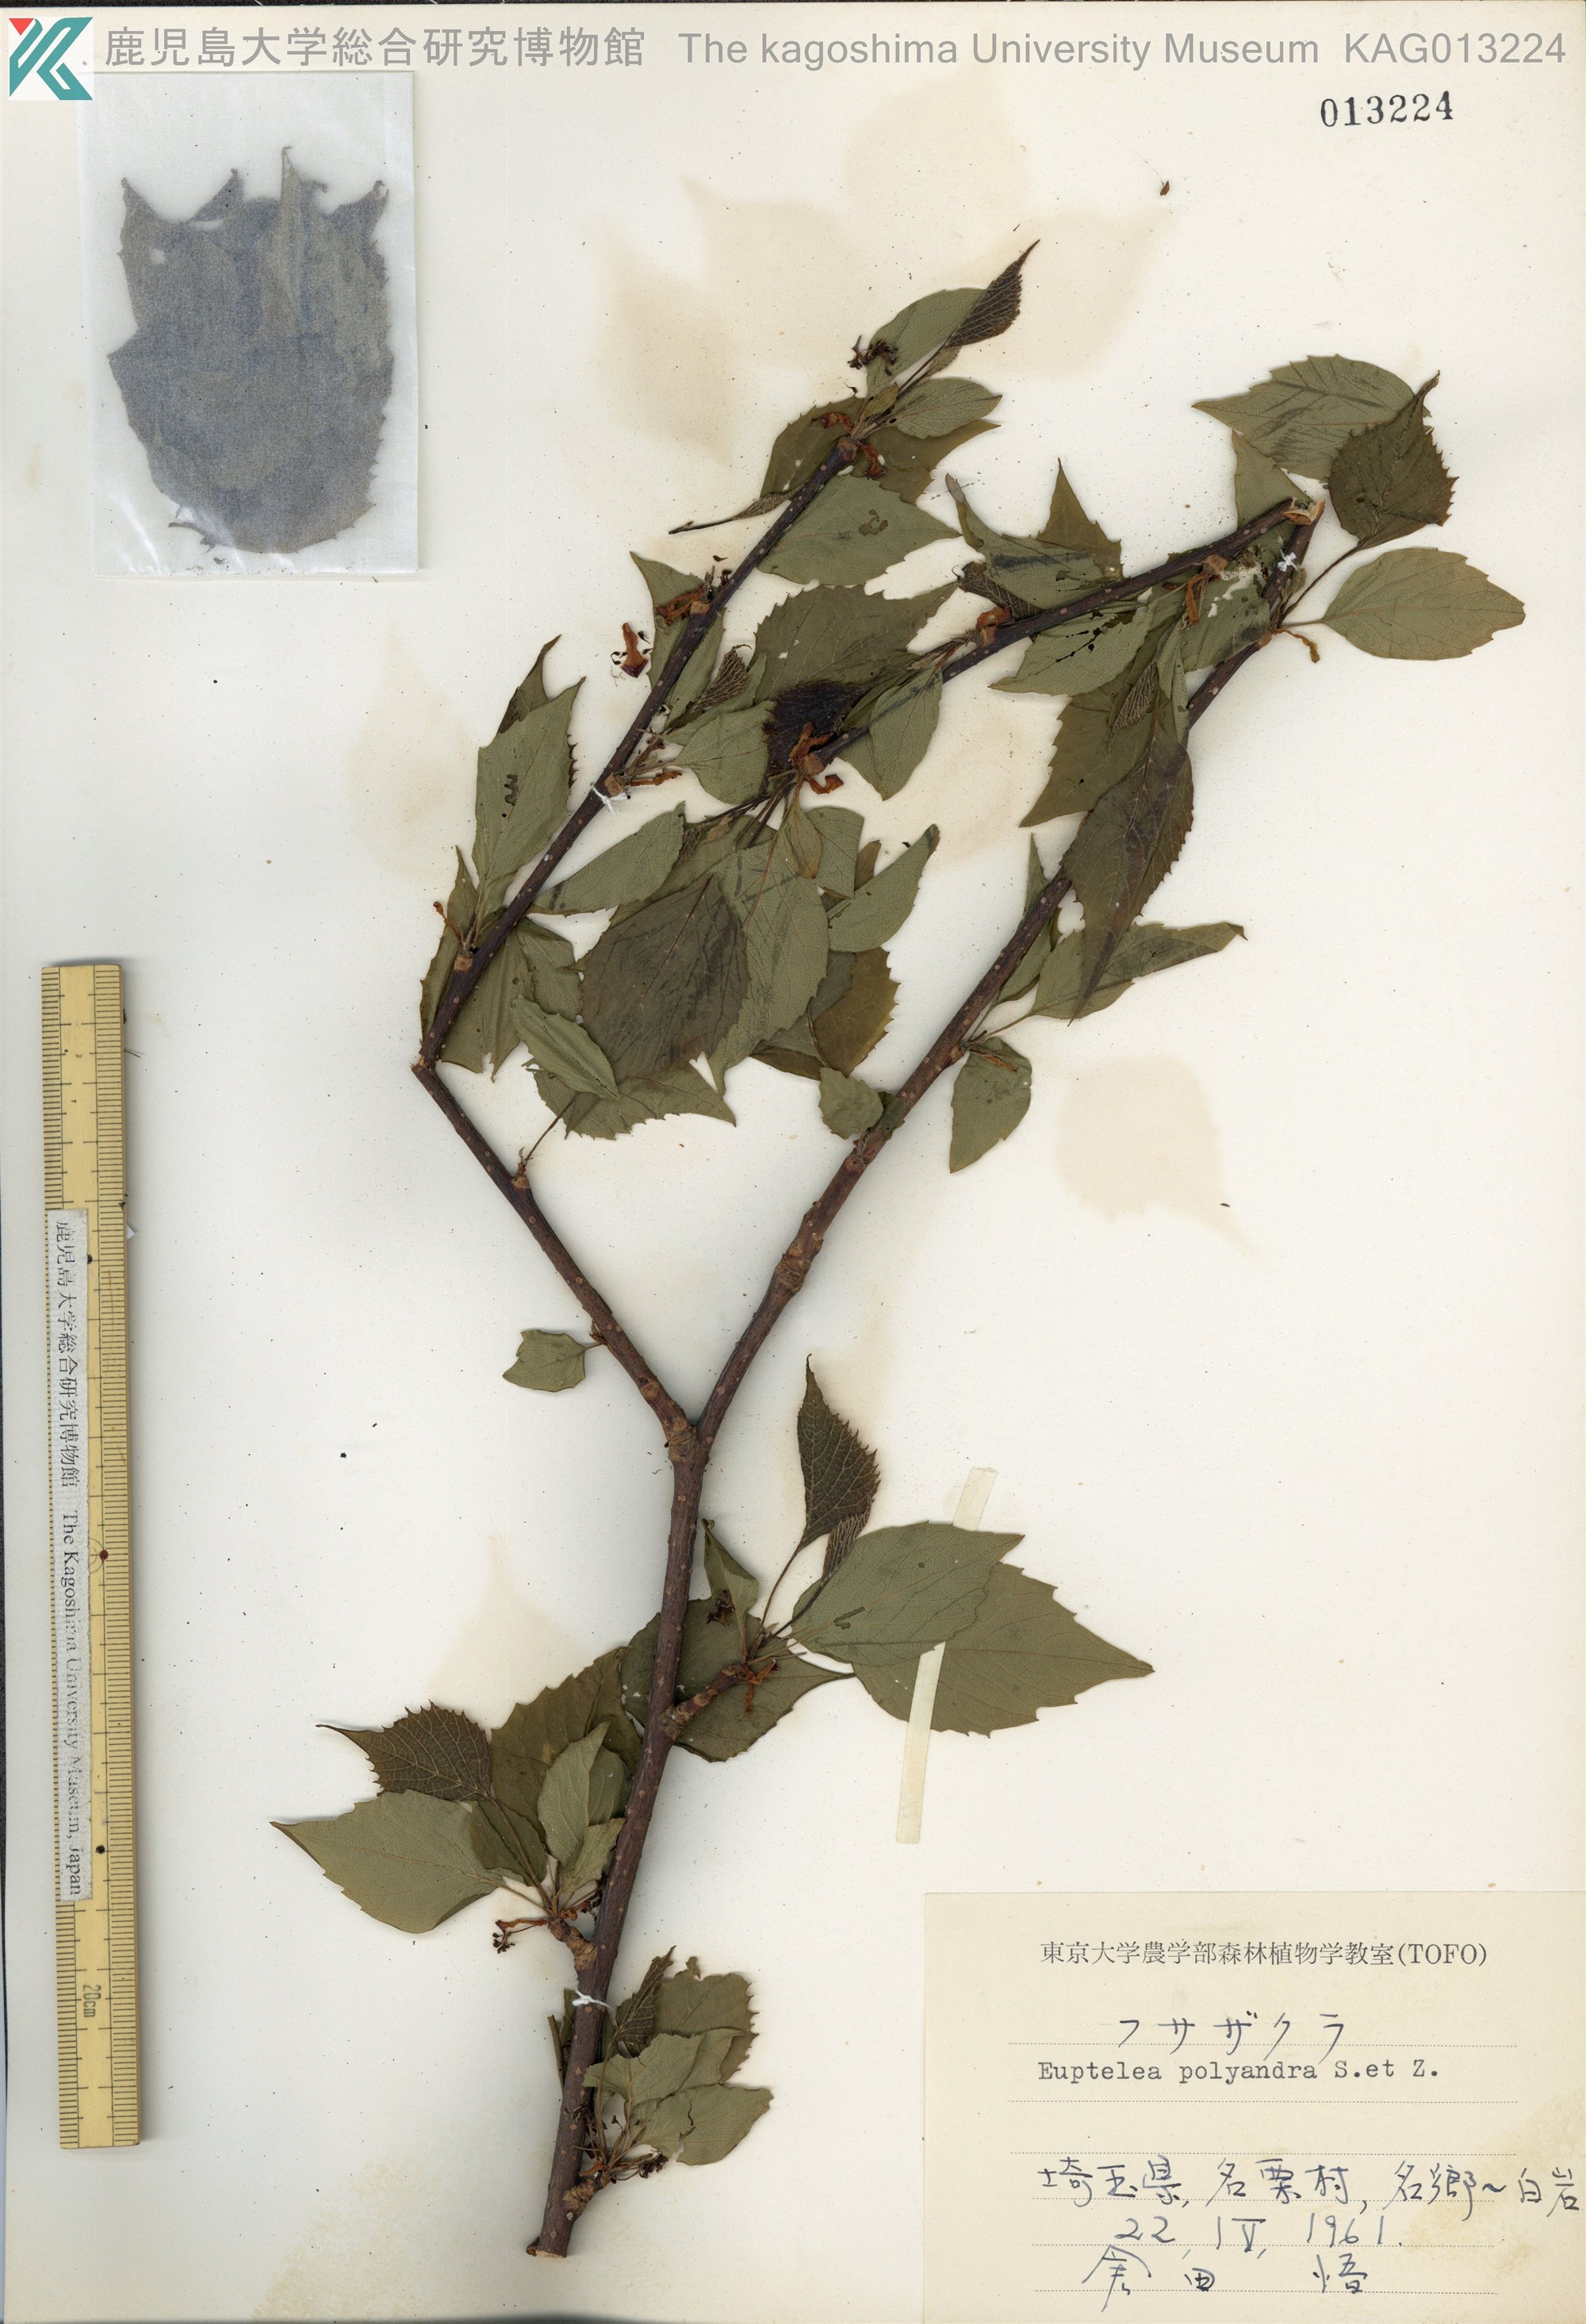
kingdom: Plantae
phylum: Tracheophyta
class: Magnoliopsida
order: Ranunculales
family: Eupteleaceae
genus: Euptelea
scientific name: Euptelea polyandra
